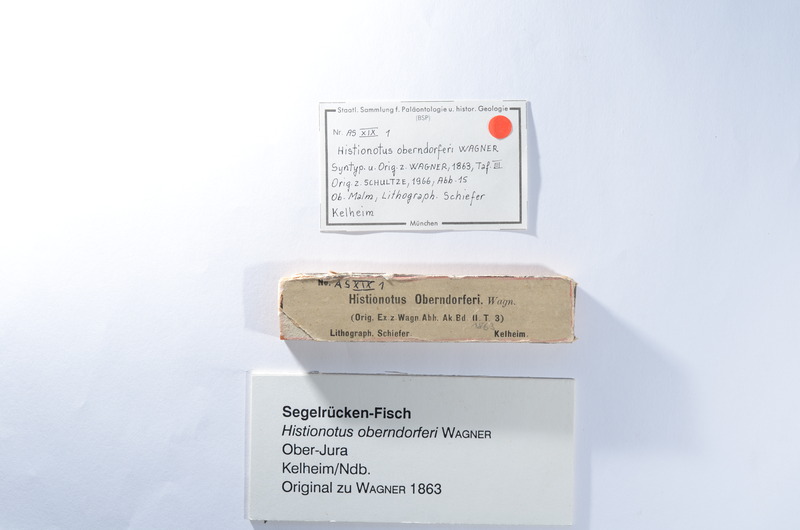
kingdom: Animalia
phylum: Chordata
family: Macrosemiidae
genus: Histionotus
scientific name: Histionotus oberndorferi
